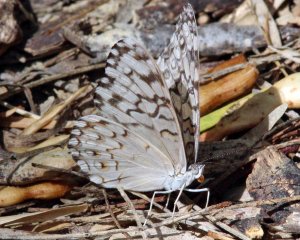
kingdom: Animalia
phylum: Arthropoda
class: Insecta
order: Lepidoptera
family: Nymphalidae
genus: Hamadryas
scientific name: Hamadryas februa
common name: Gray Cracker
